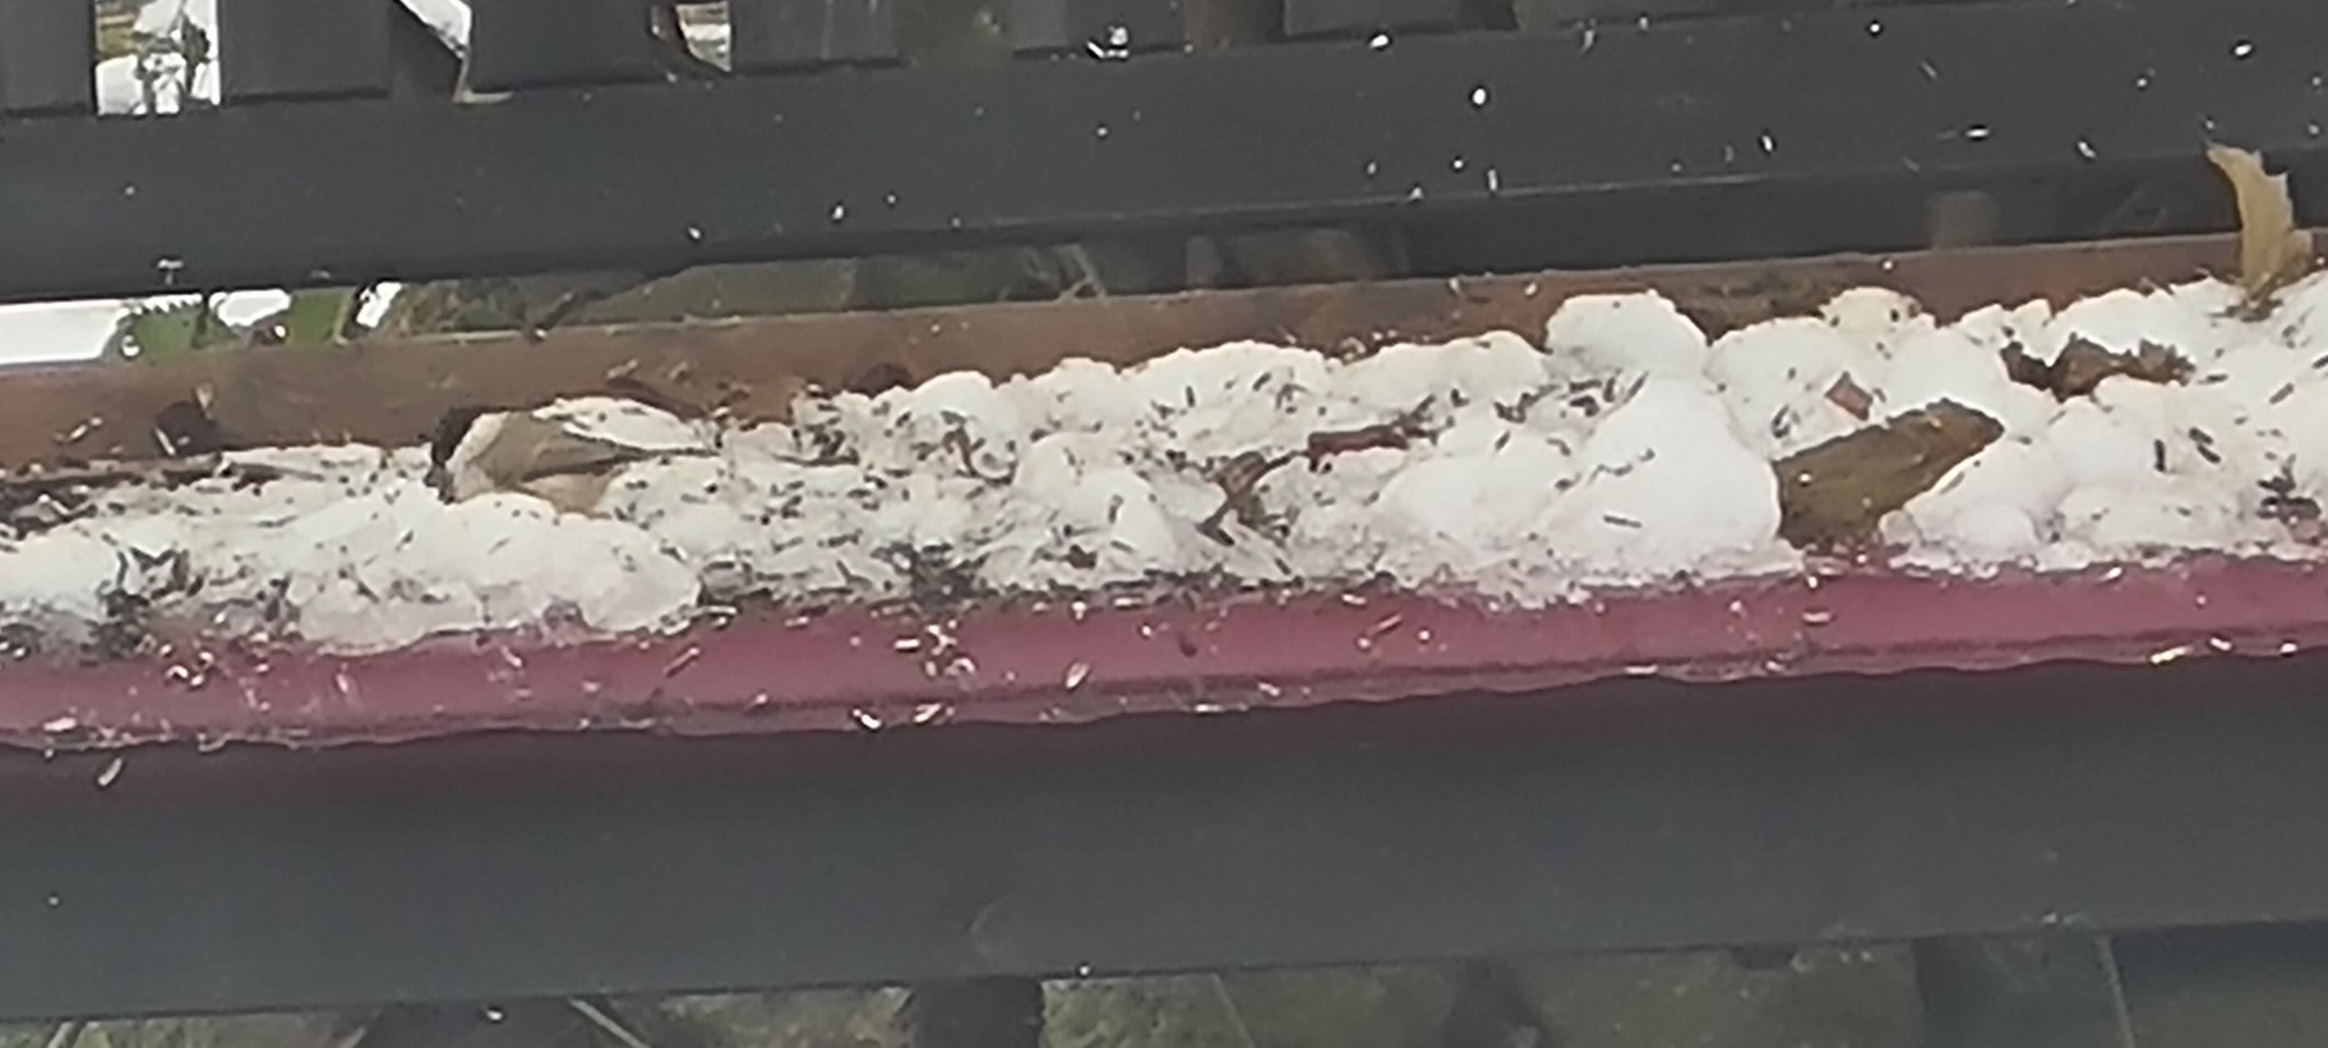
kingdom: Animalia
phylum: Chordata
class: Aves
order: Passeriformes
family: Paridae
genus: Poecile
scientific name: Poecile palustris
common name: Sumpmejse
